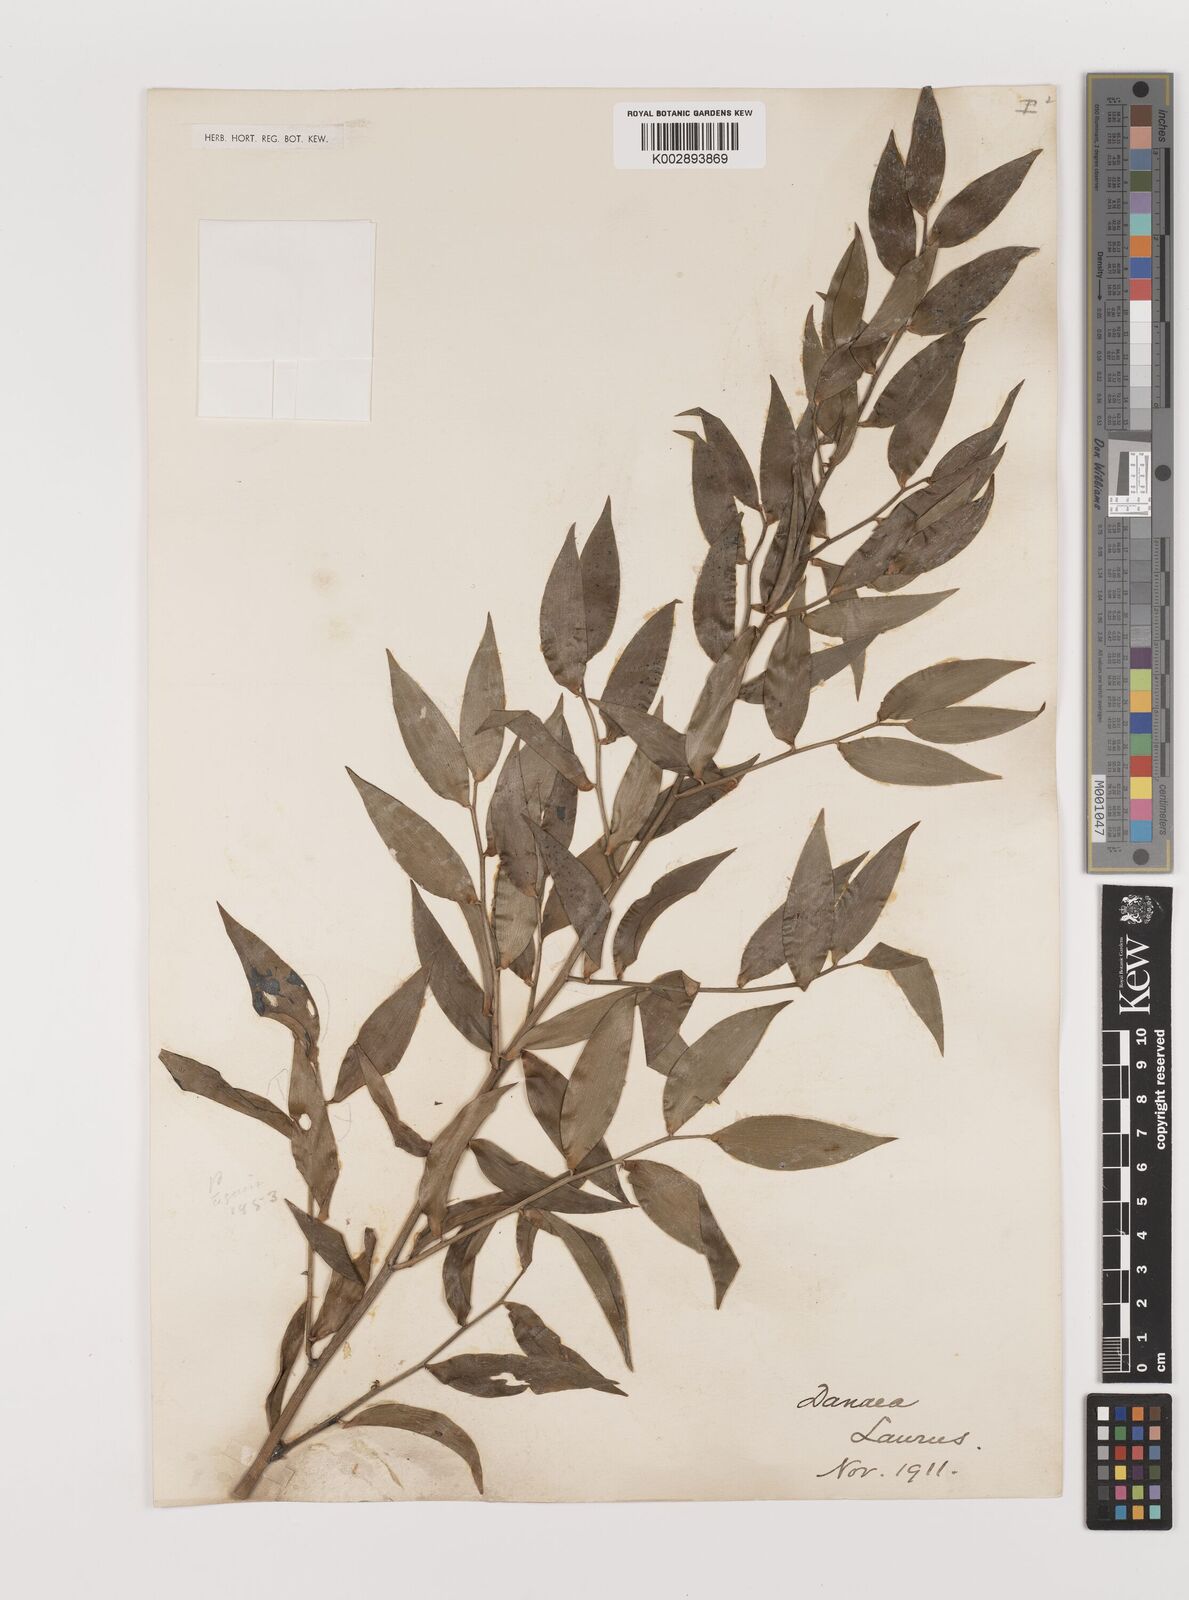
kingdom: Plantae
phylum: Tracheophyta
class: Liliopsida
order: Asparagales
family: Asparagaceae
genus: Danae
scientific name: Danae racemosa
